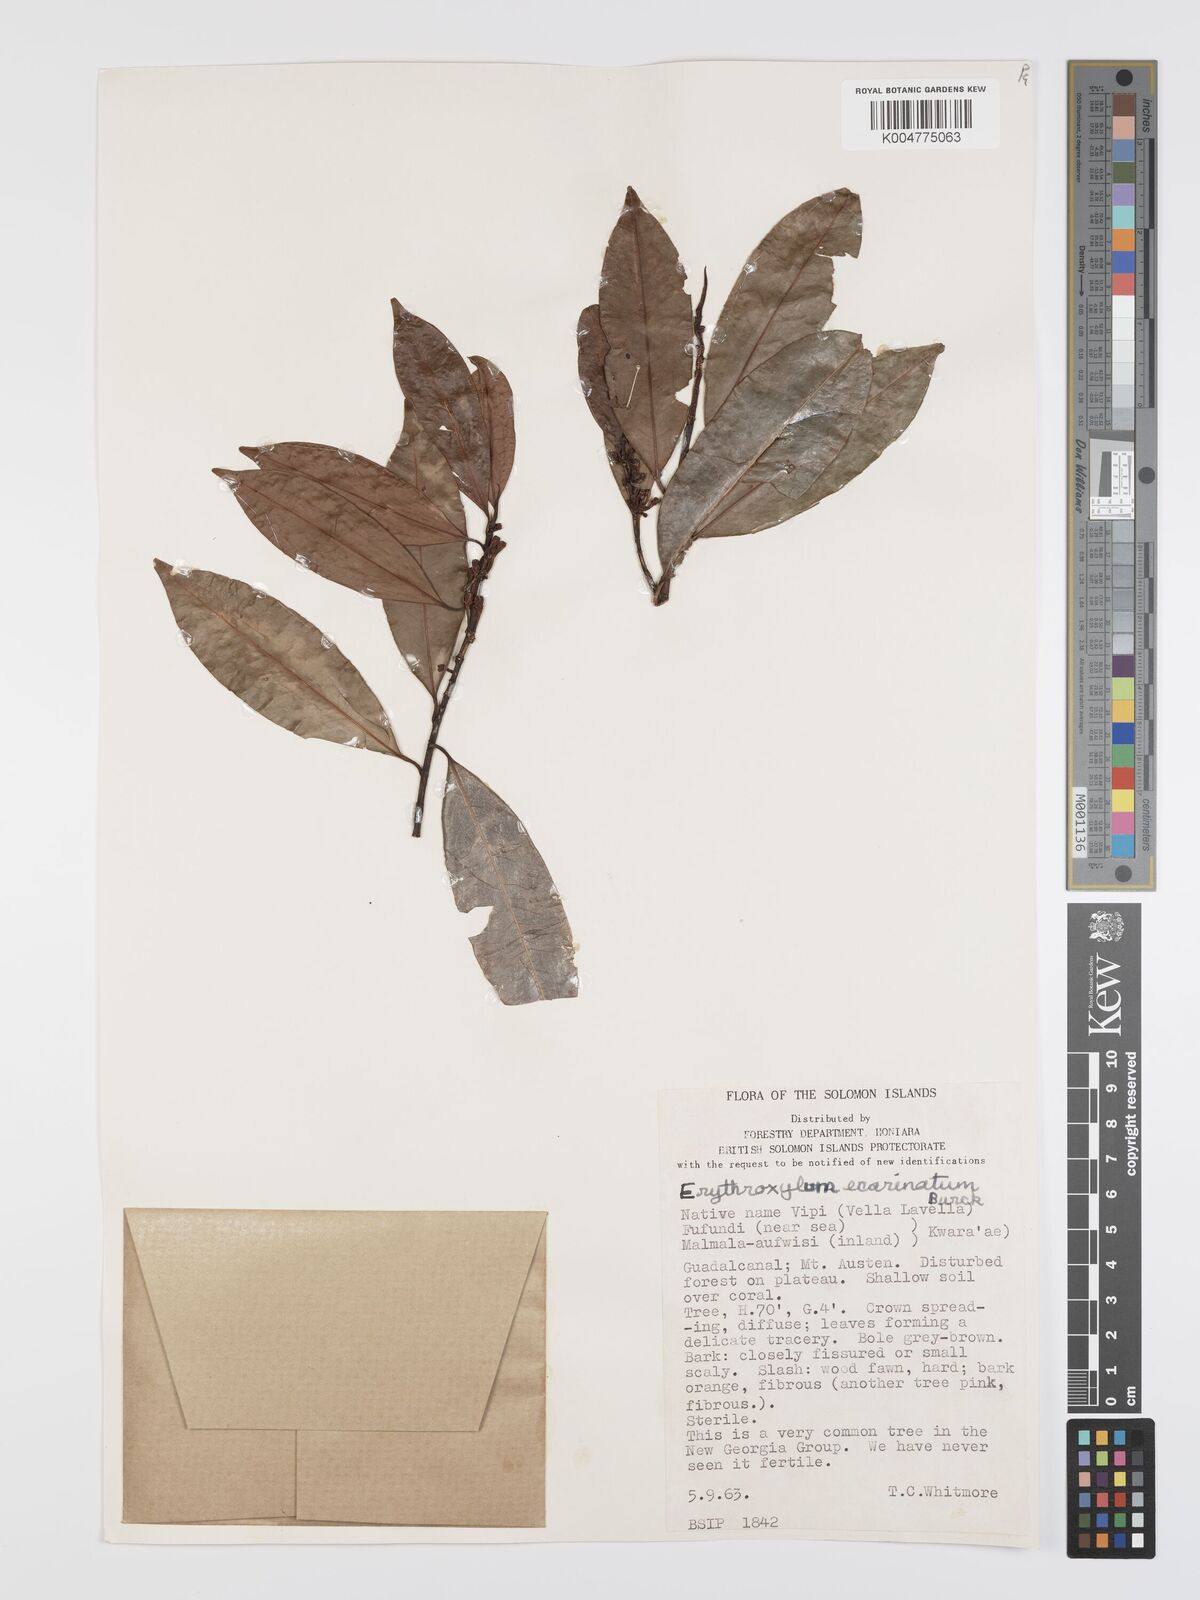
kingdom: Plantae
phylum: Tracheophyta
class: Magnoliopsida
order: Malpighiales
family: Erythroxylaceae
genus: Erythroxylum
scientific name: Erythroxylum ecarinatum
